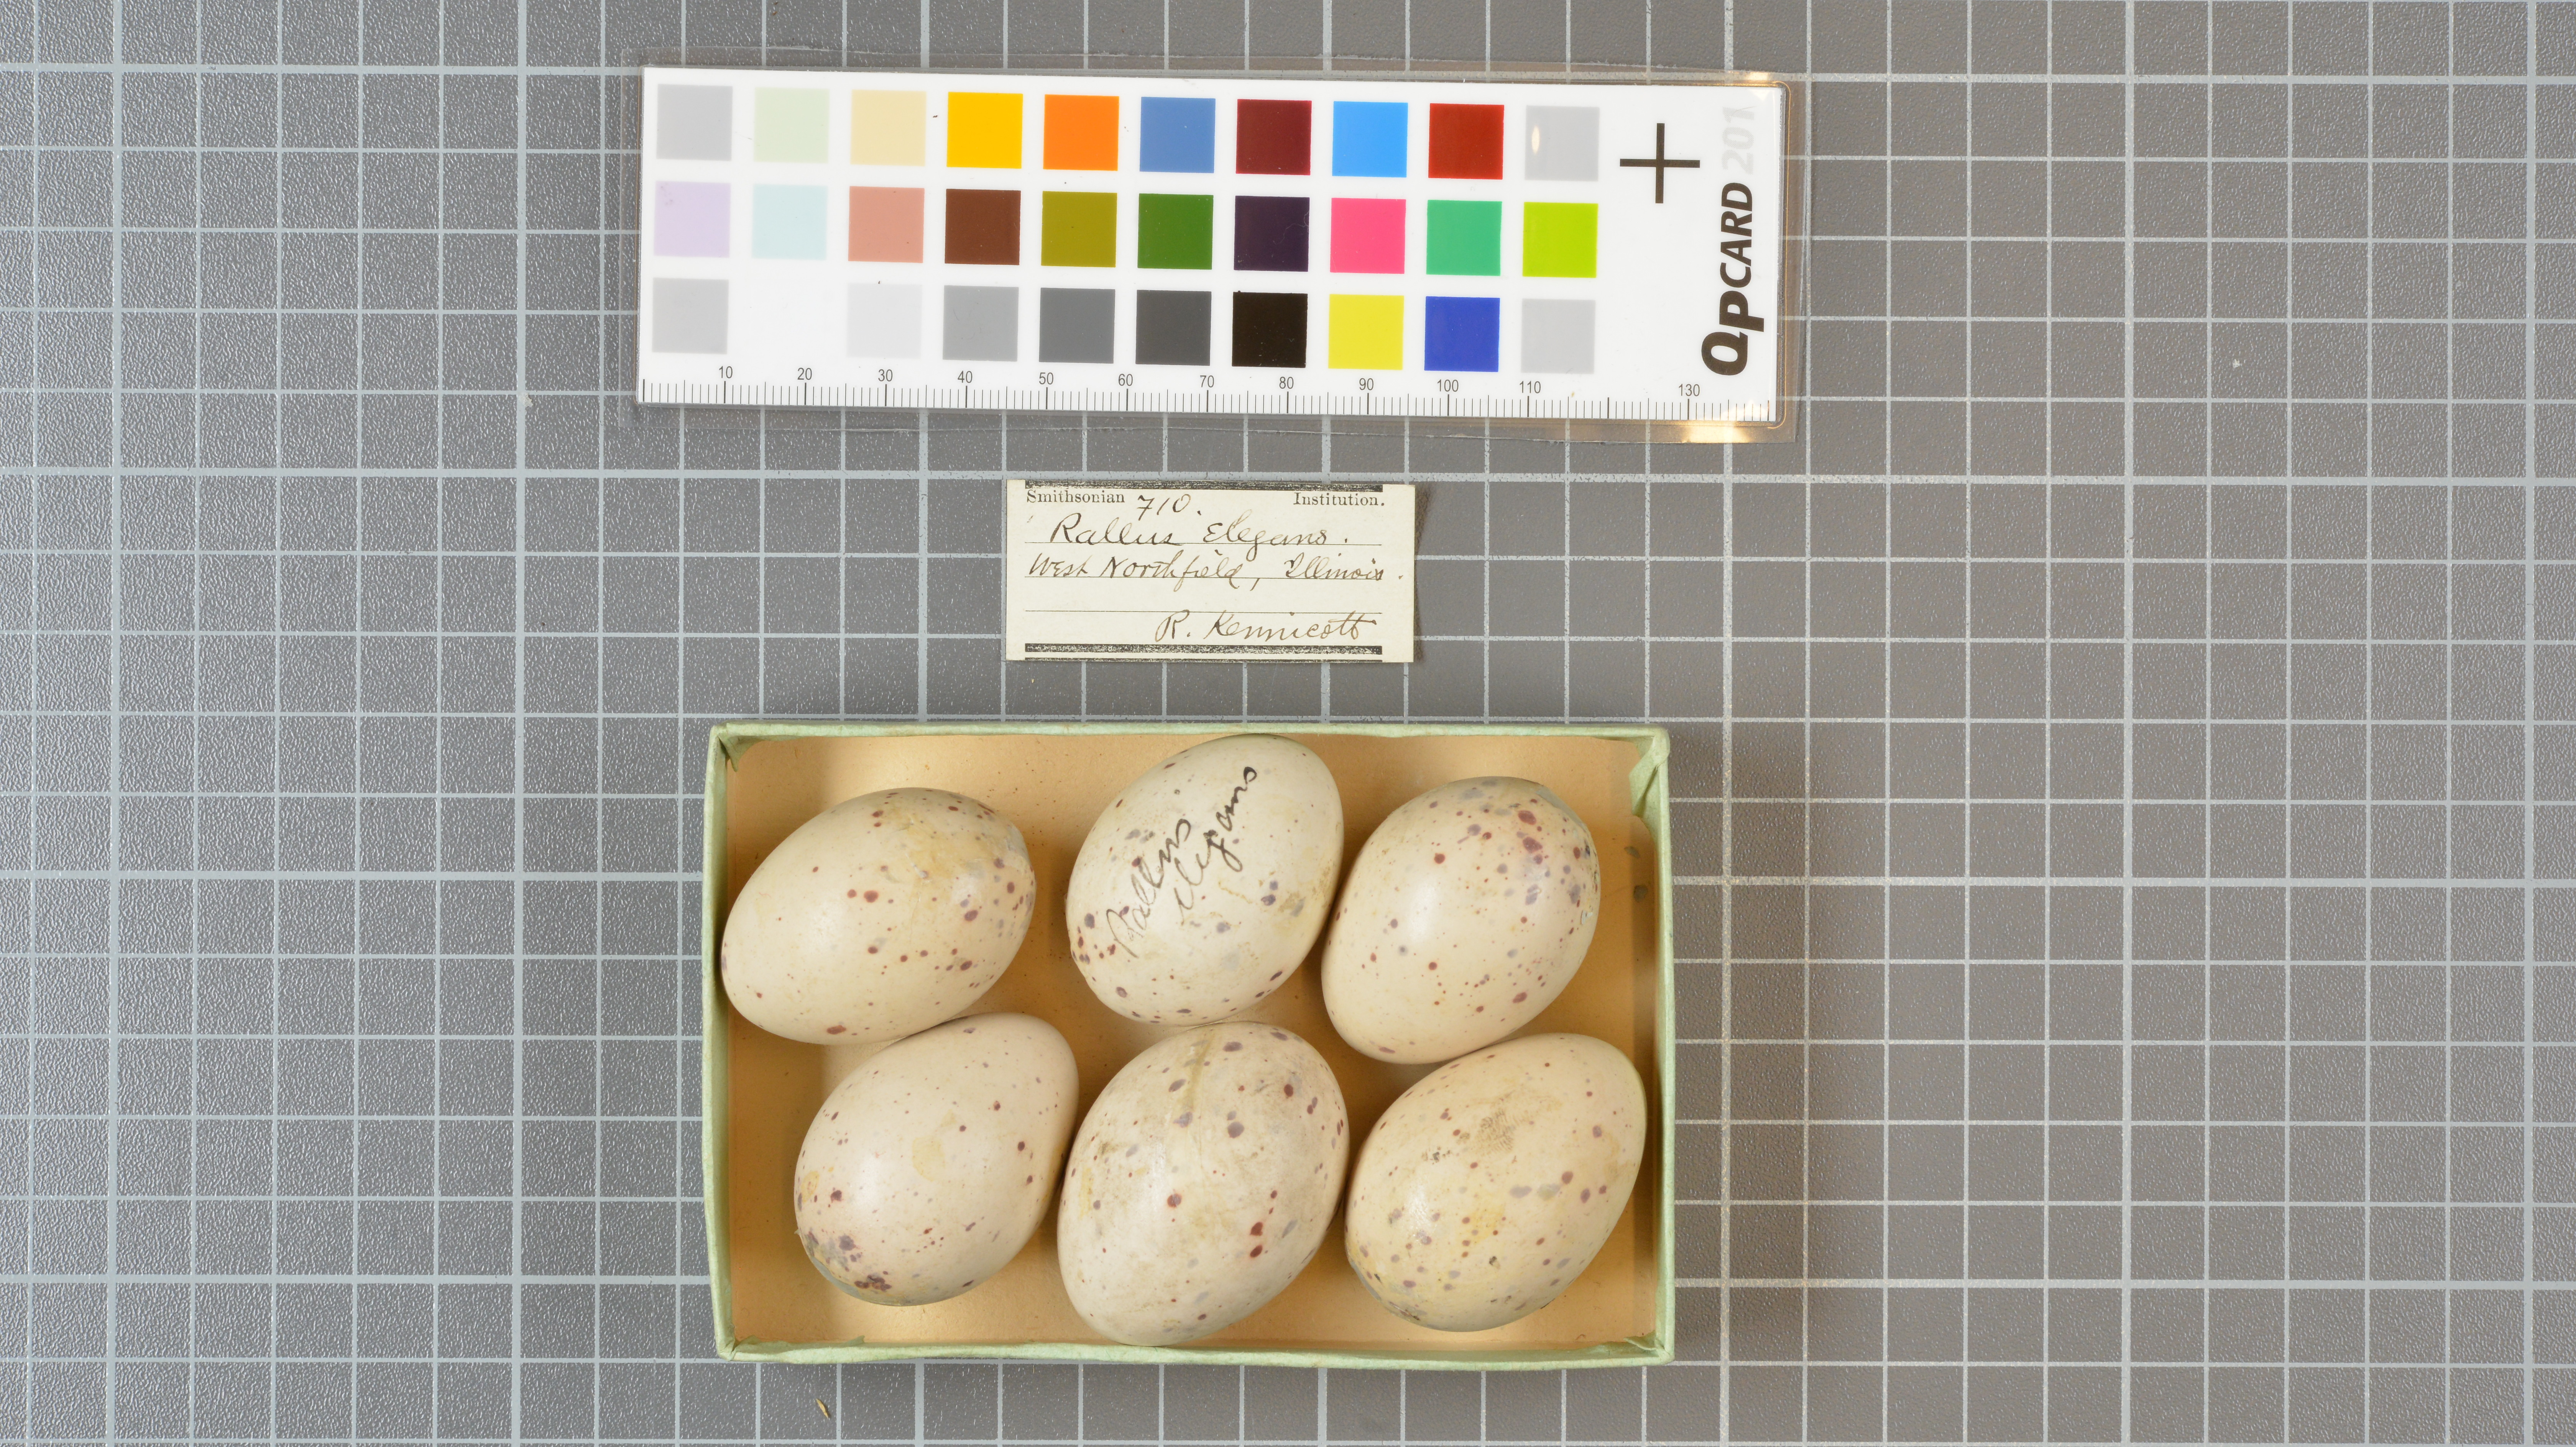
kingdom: Animalia
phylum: Chordata
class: Aves
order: Gruiformes
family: Rallidae
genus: Rallus
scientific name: Rallus elegans
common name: King rail
